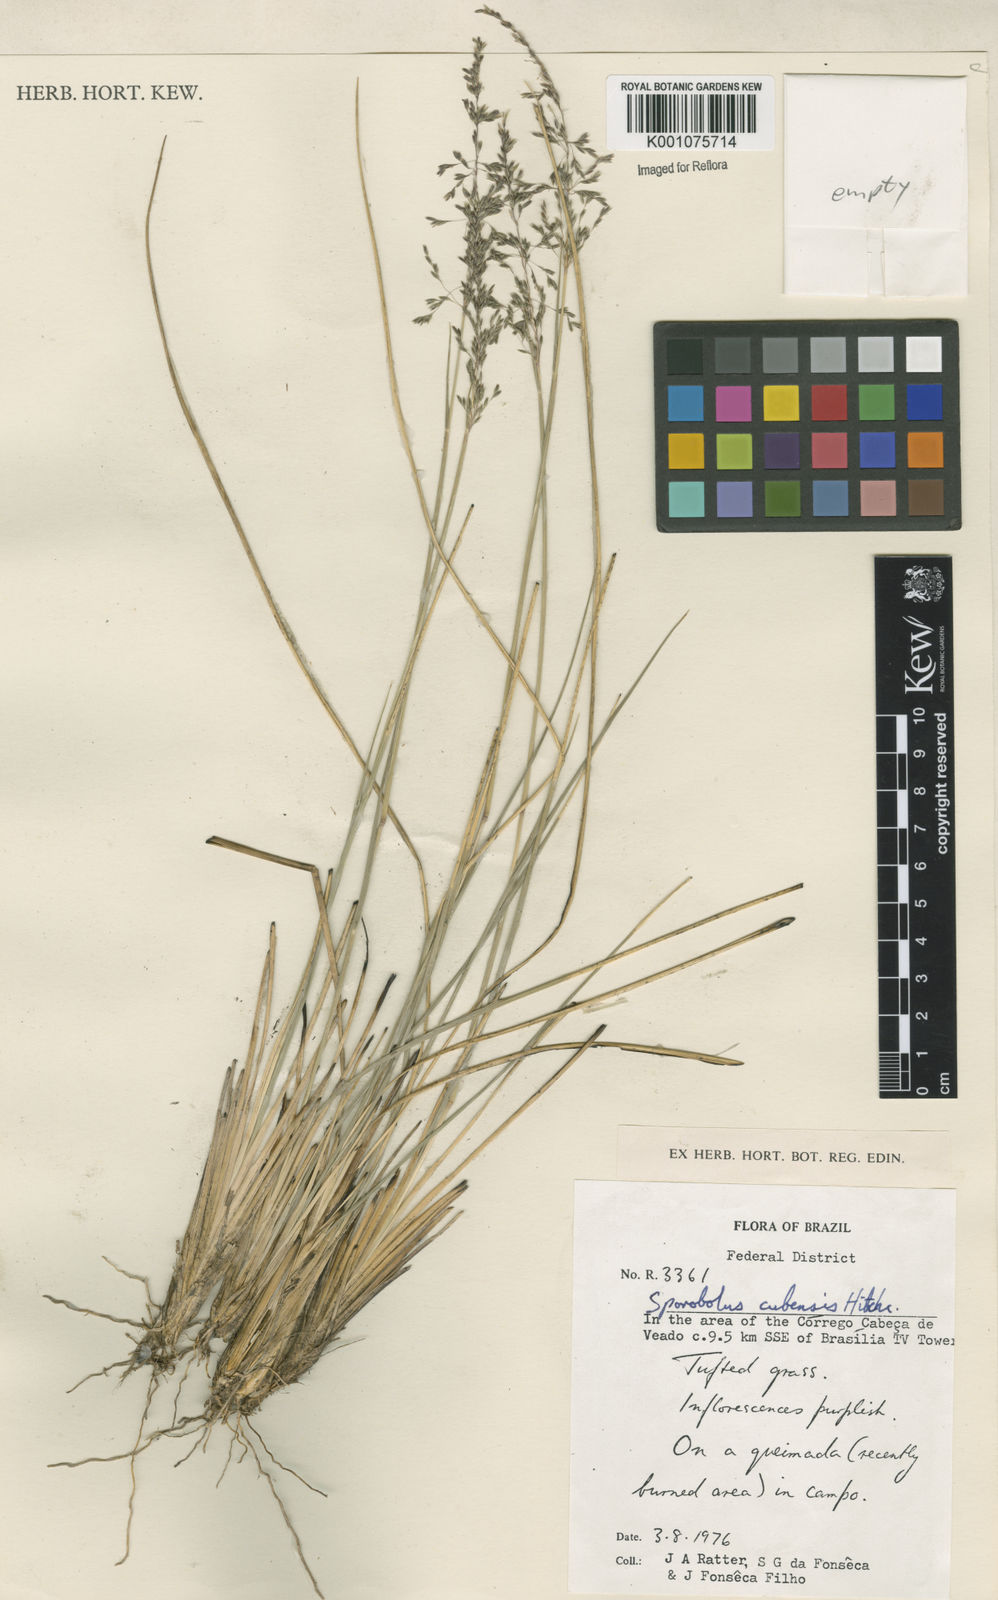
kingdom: Plantae
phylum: Tracheophyta
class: Liliopsida
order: Poales
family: Poaceae
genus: Sporobolus
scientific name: Sporobolus cubensis
